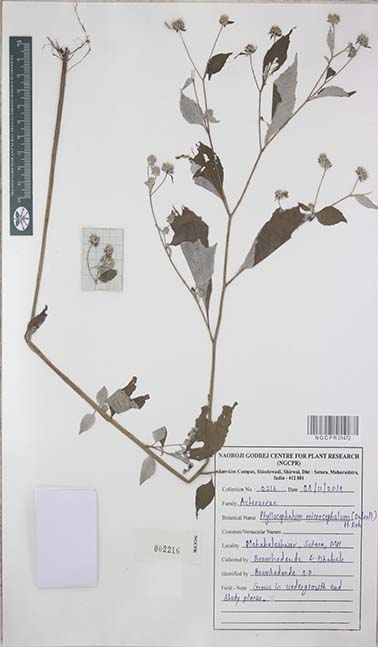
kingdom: Plantae
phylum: Tracheophyta
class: Magnoliopsida
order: Asterales
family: Asteraceae
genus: Phyllocephalum
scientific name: Phyllocephalum microcephalum
